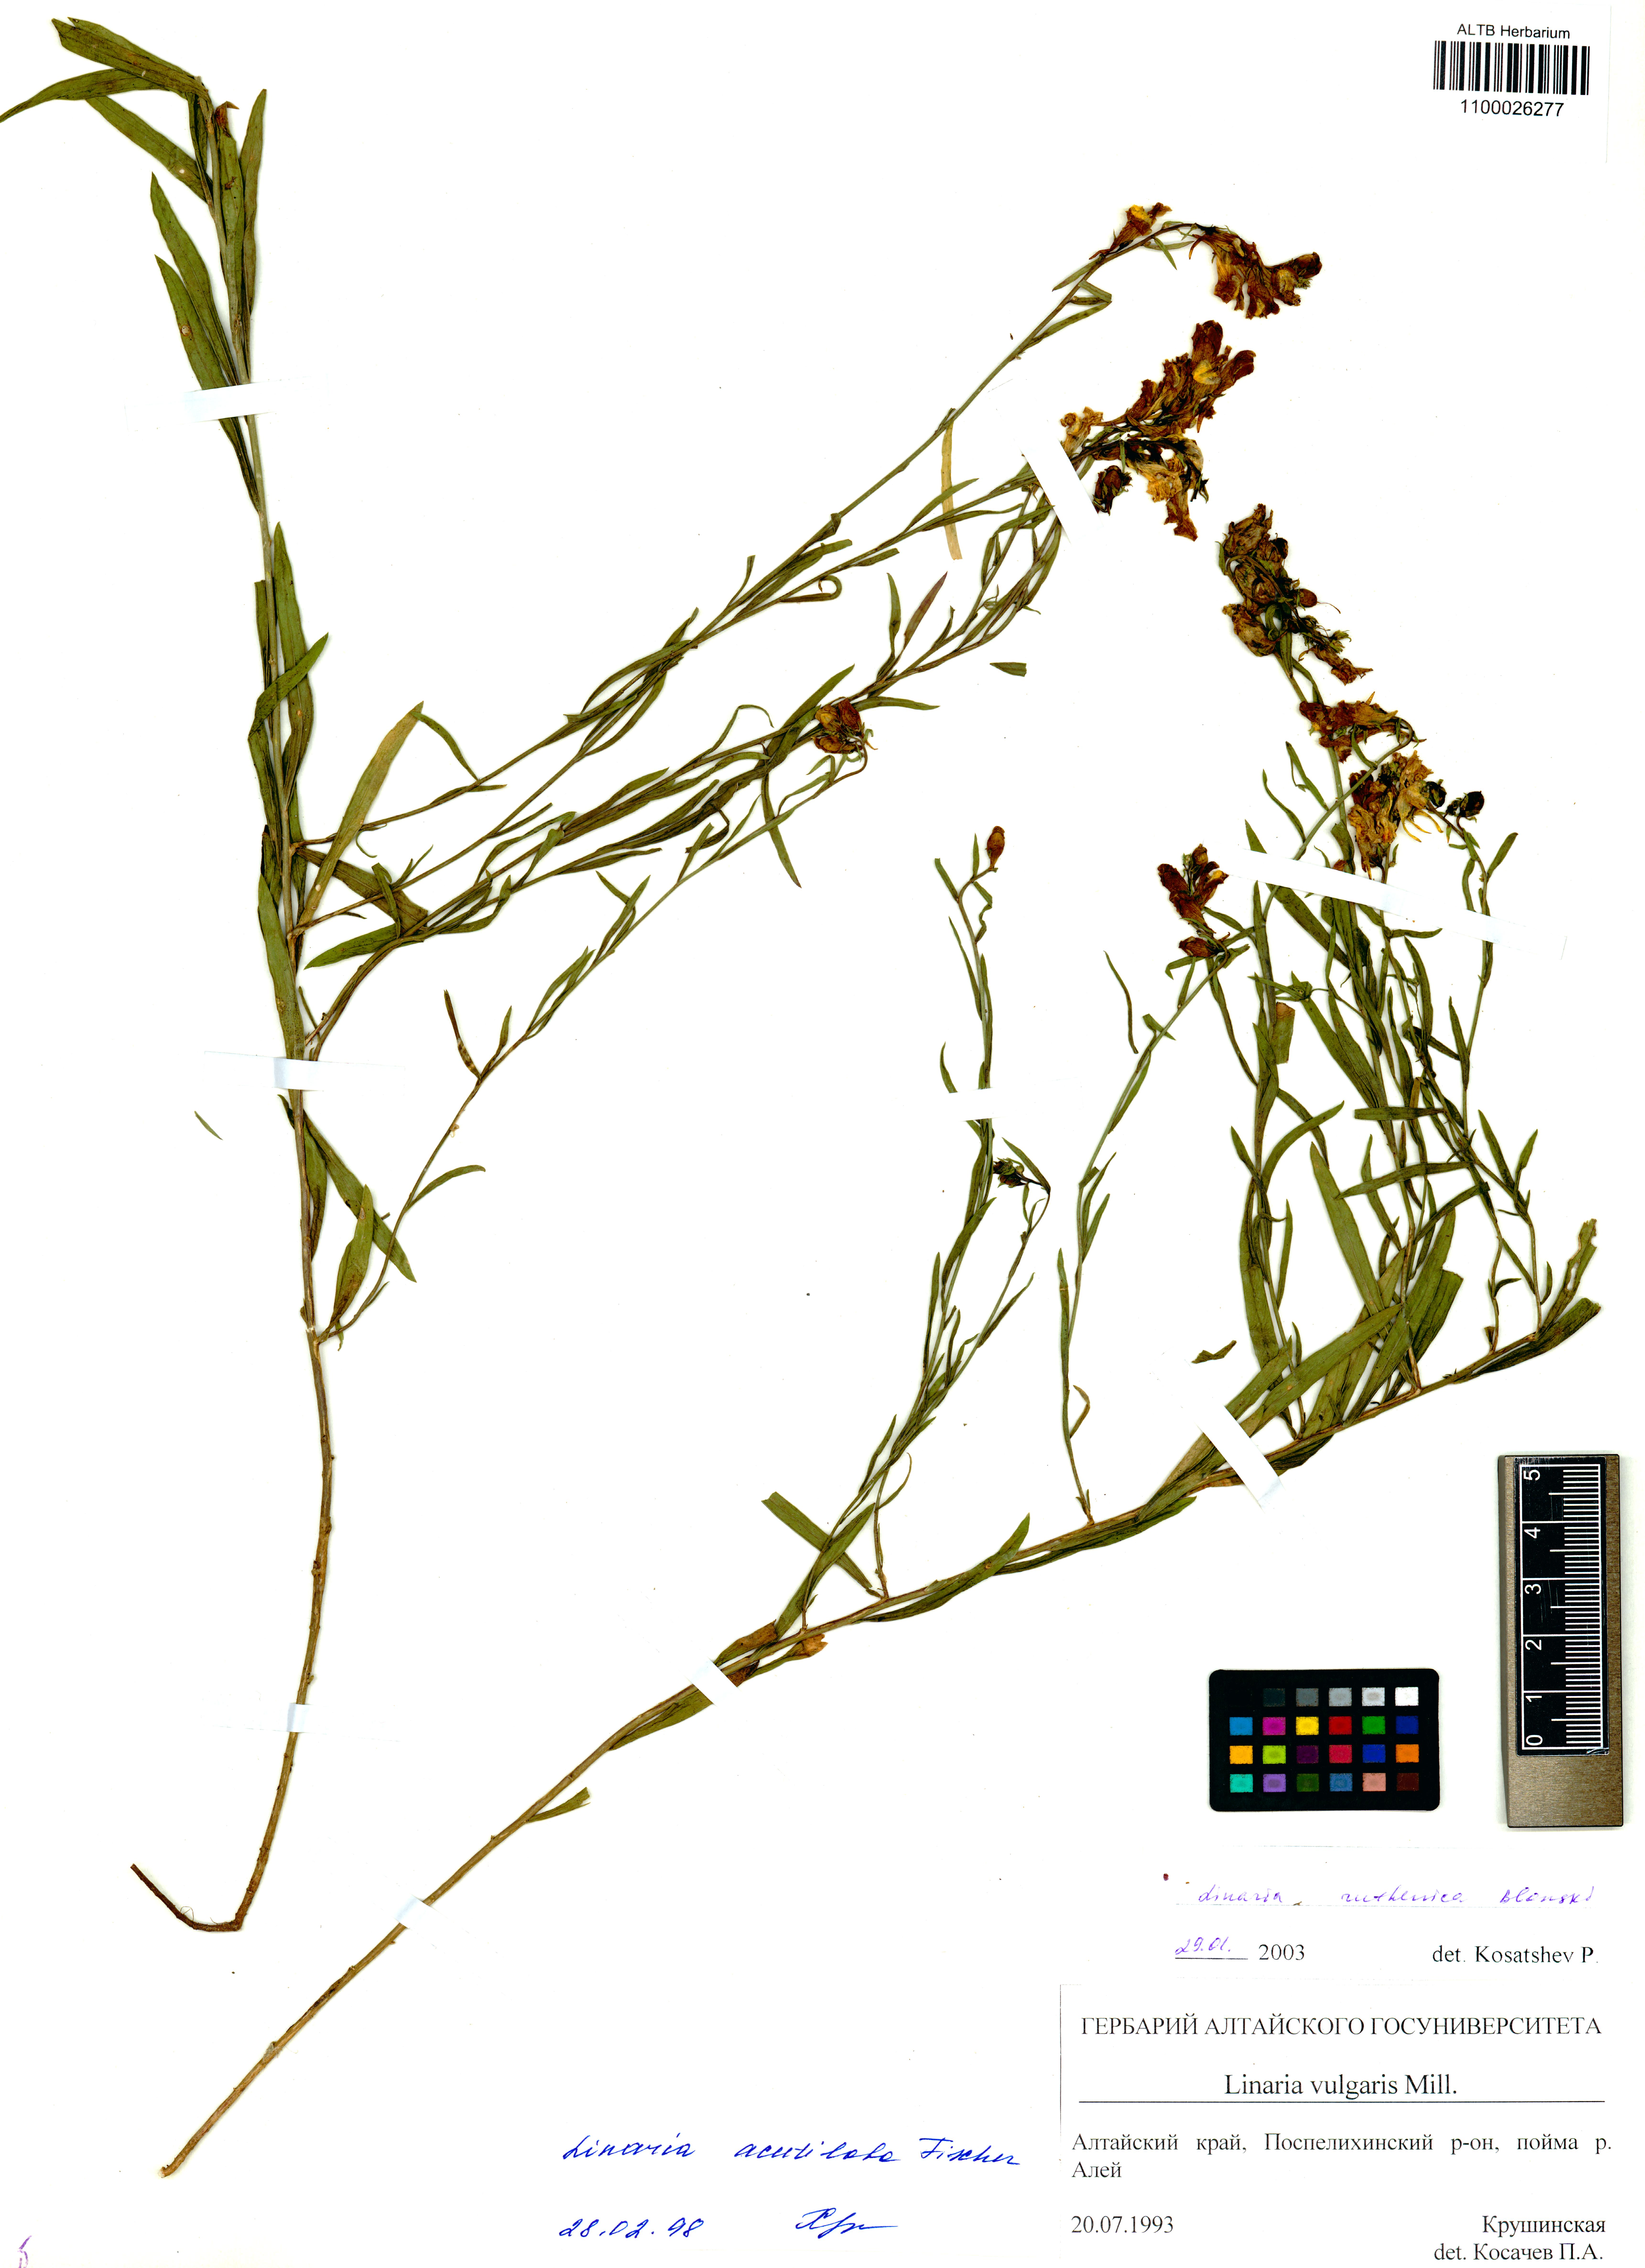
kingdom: Plantae
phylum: Tracheophyta
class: Magnoliopsida
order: Lamiales
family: Plantaginaceae
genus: Linaria
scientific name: Linaria biebersteinii
